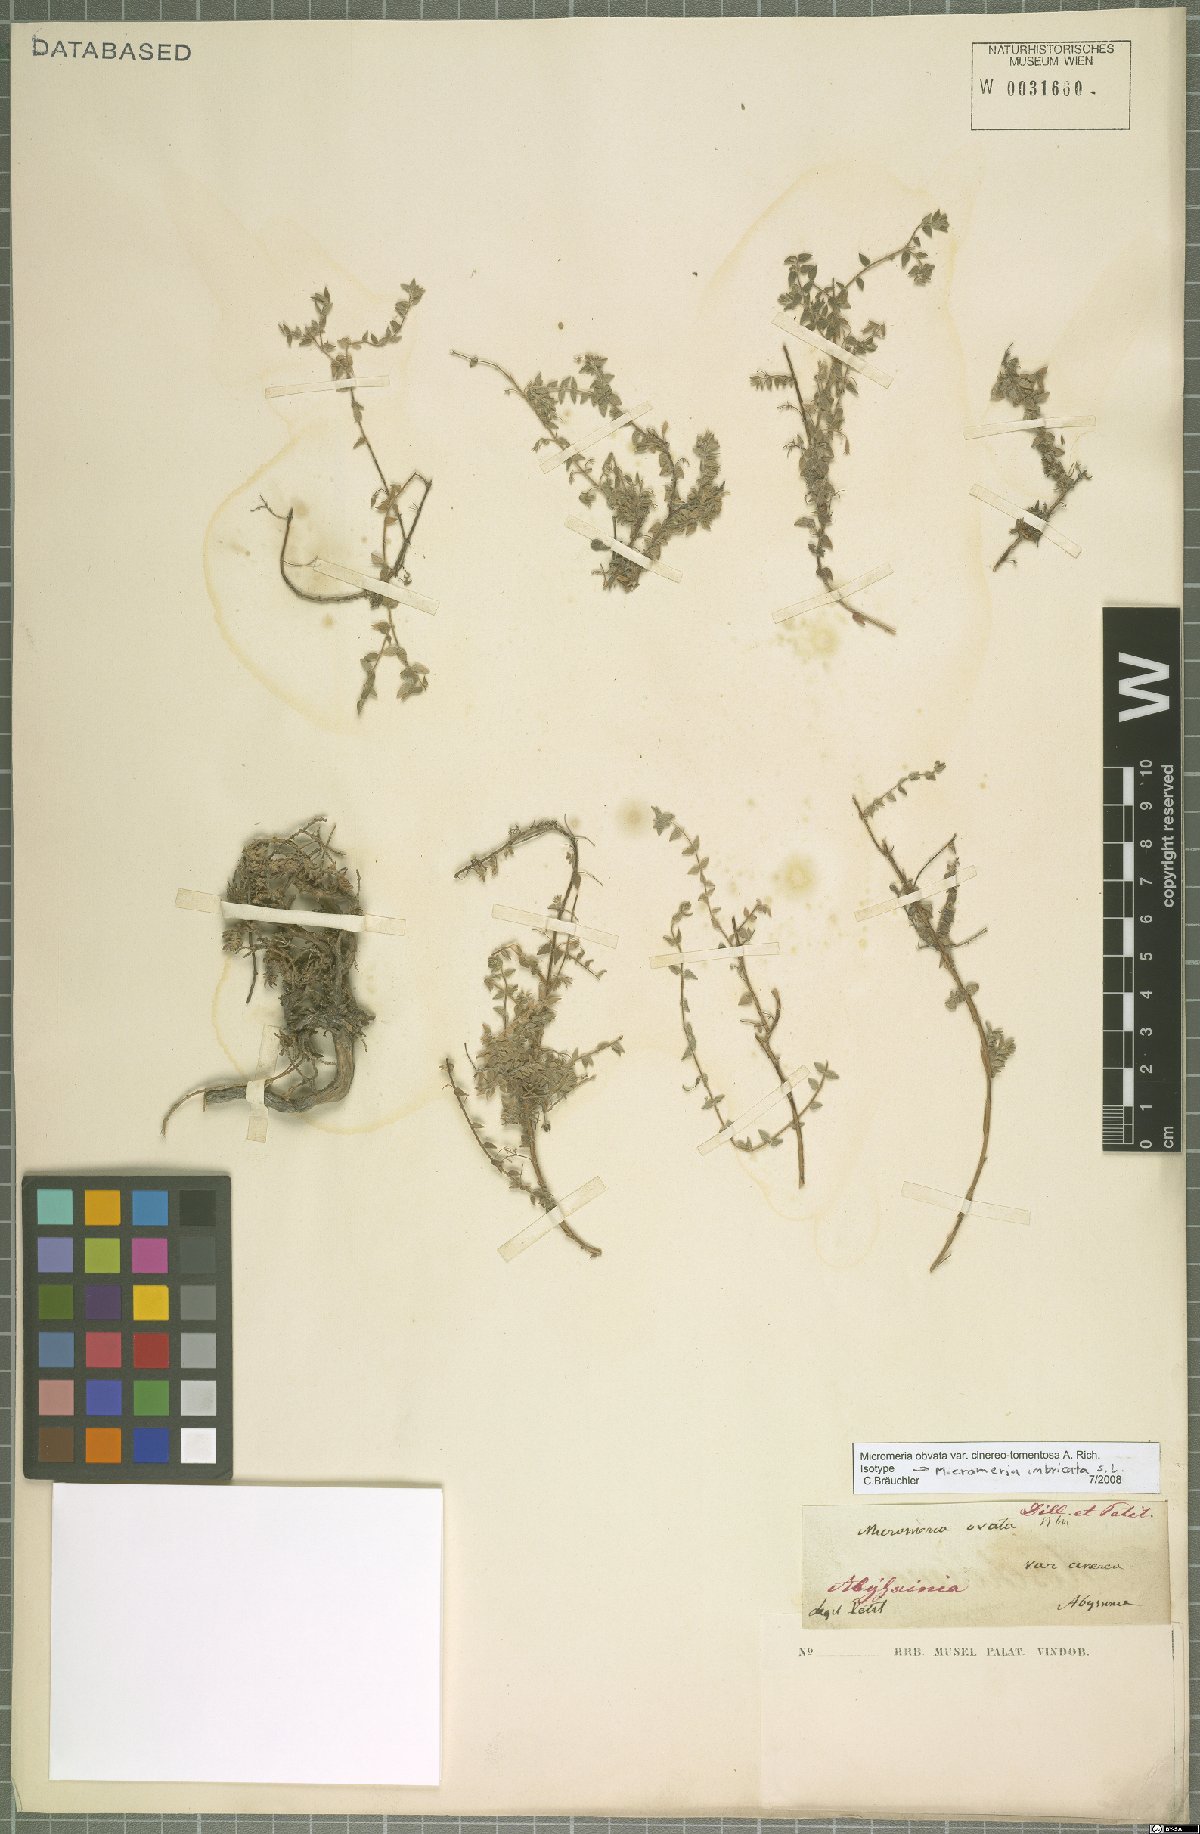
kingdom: Plantae
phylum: Tracheophyta
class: Magnoliopsida
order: Lamiales
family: Lamiaceae
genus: Micromeria
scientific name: Micromeria imbricata
